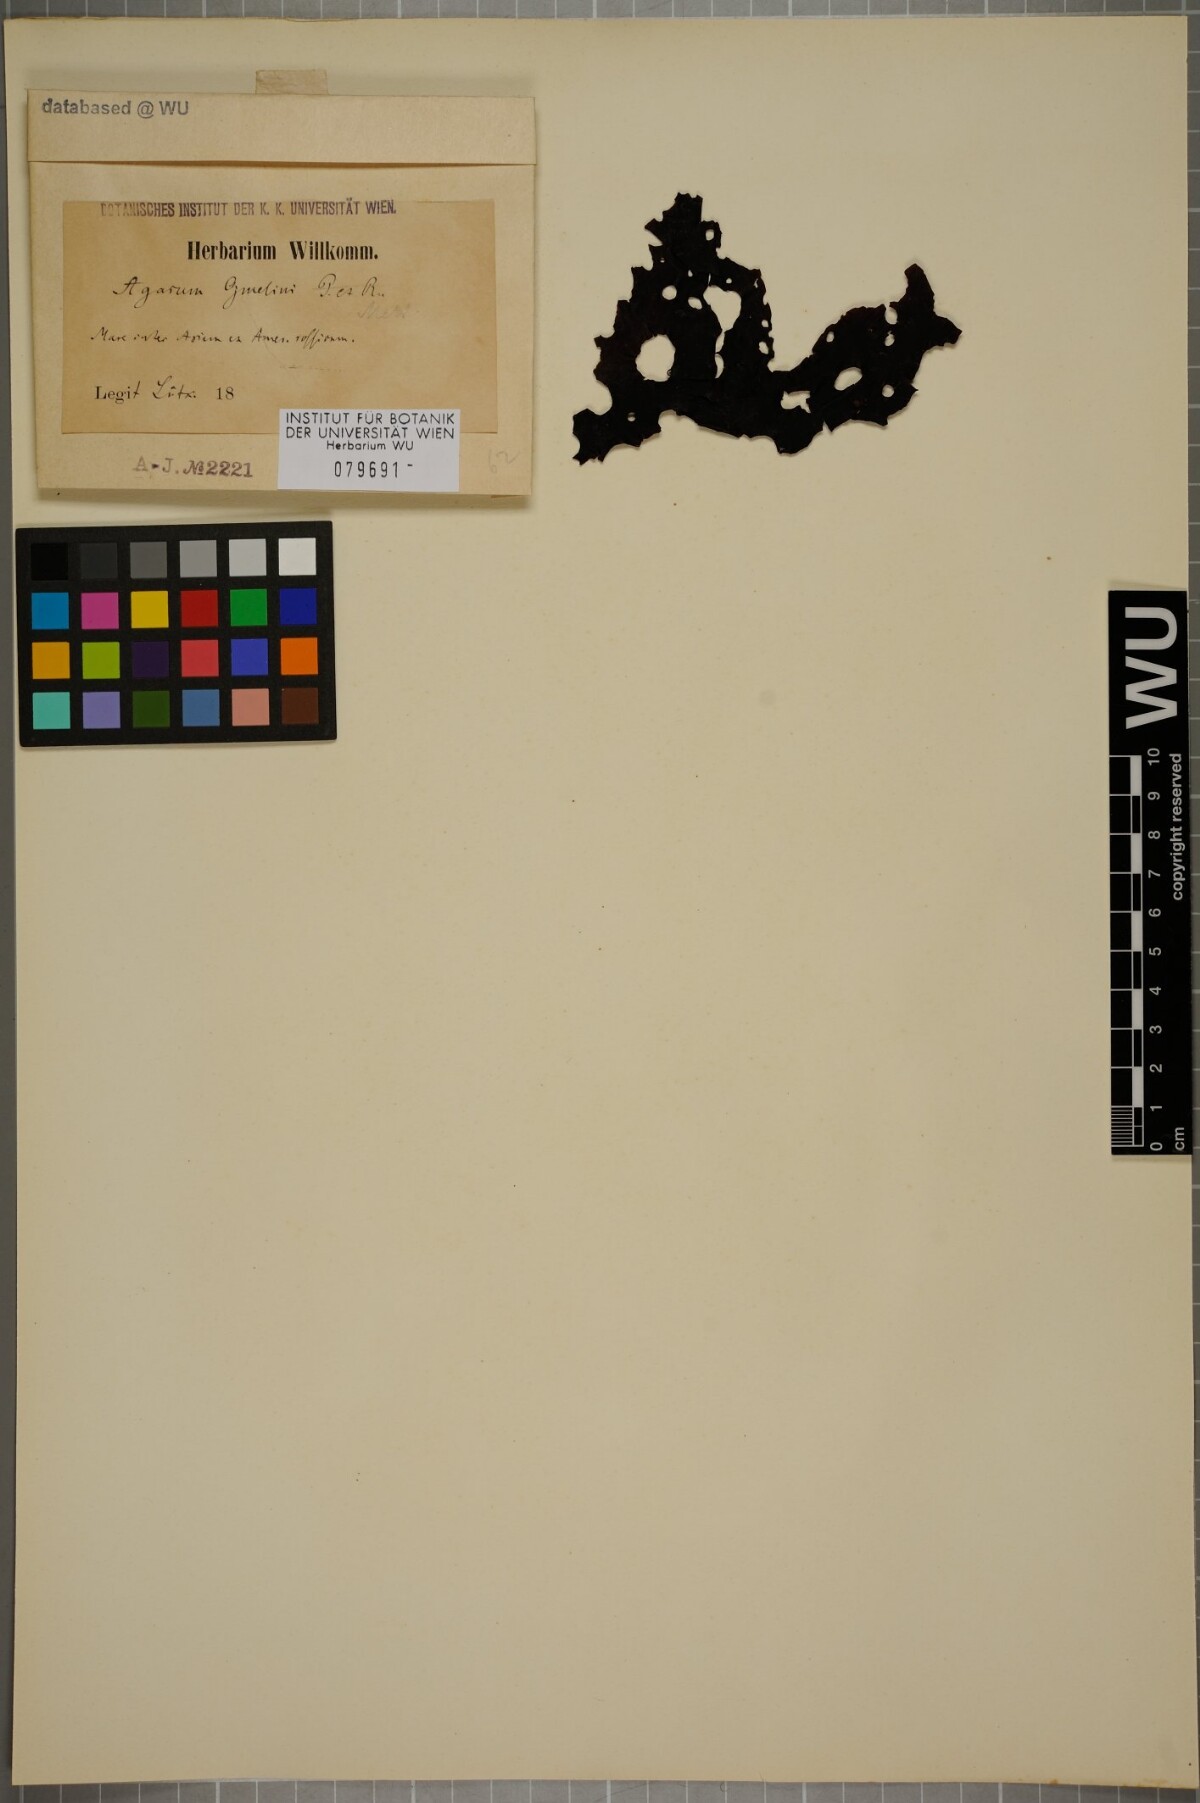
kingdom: Chromista
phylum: Ochrophyta
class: Phaeophyceae
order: Laminariales
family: Agaraceae
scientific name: Agaraceae
